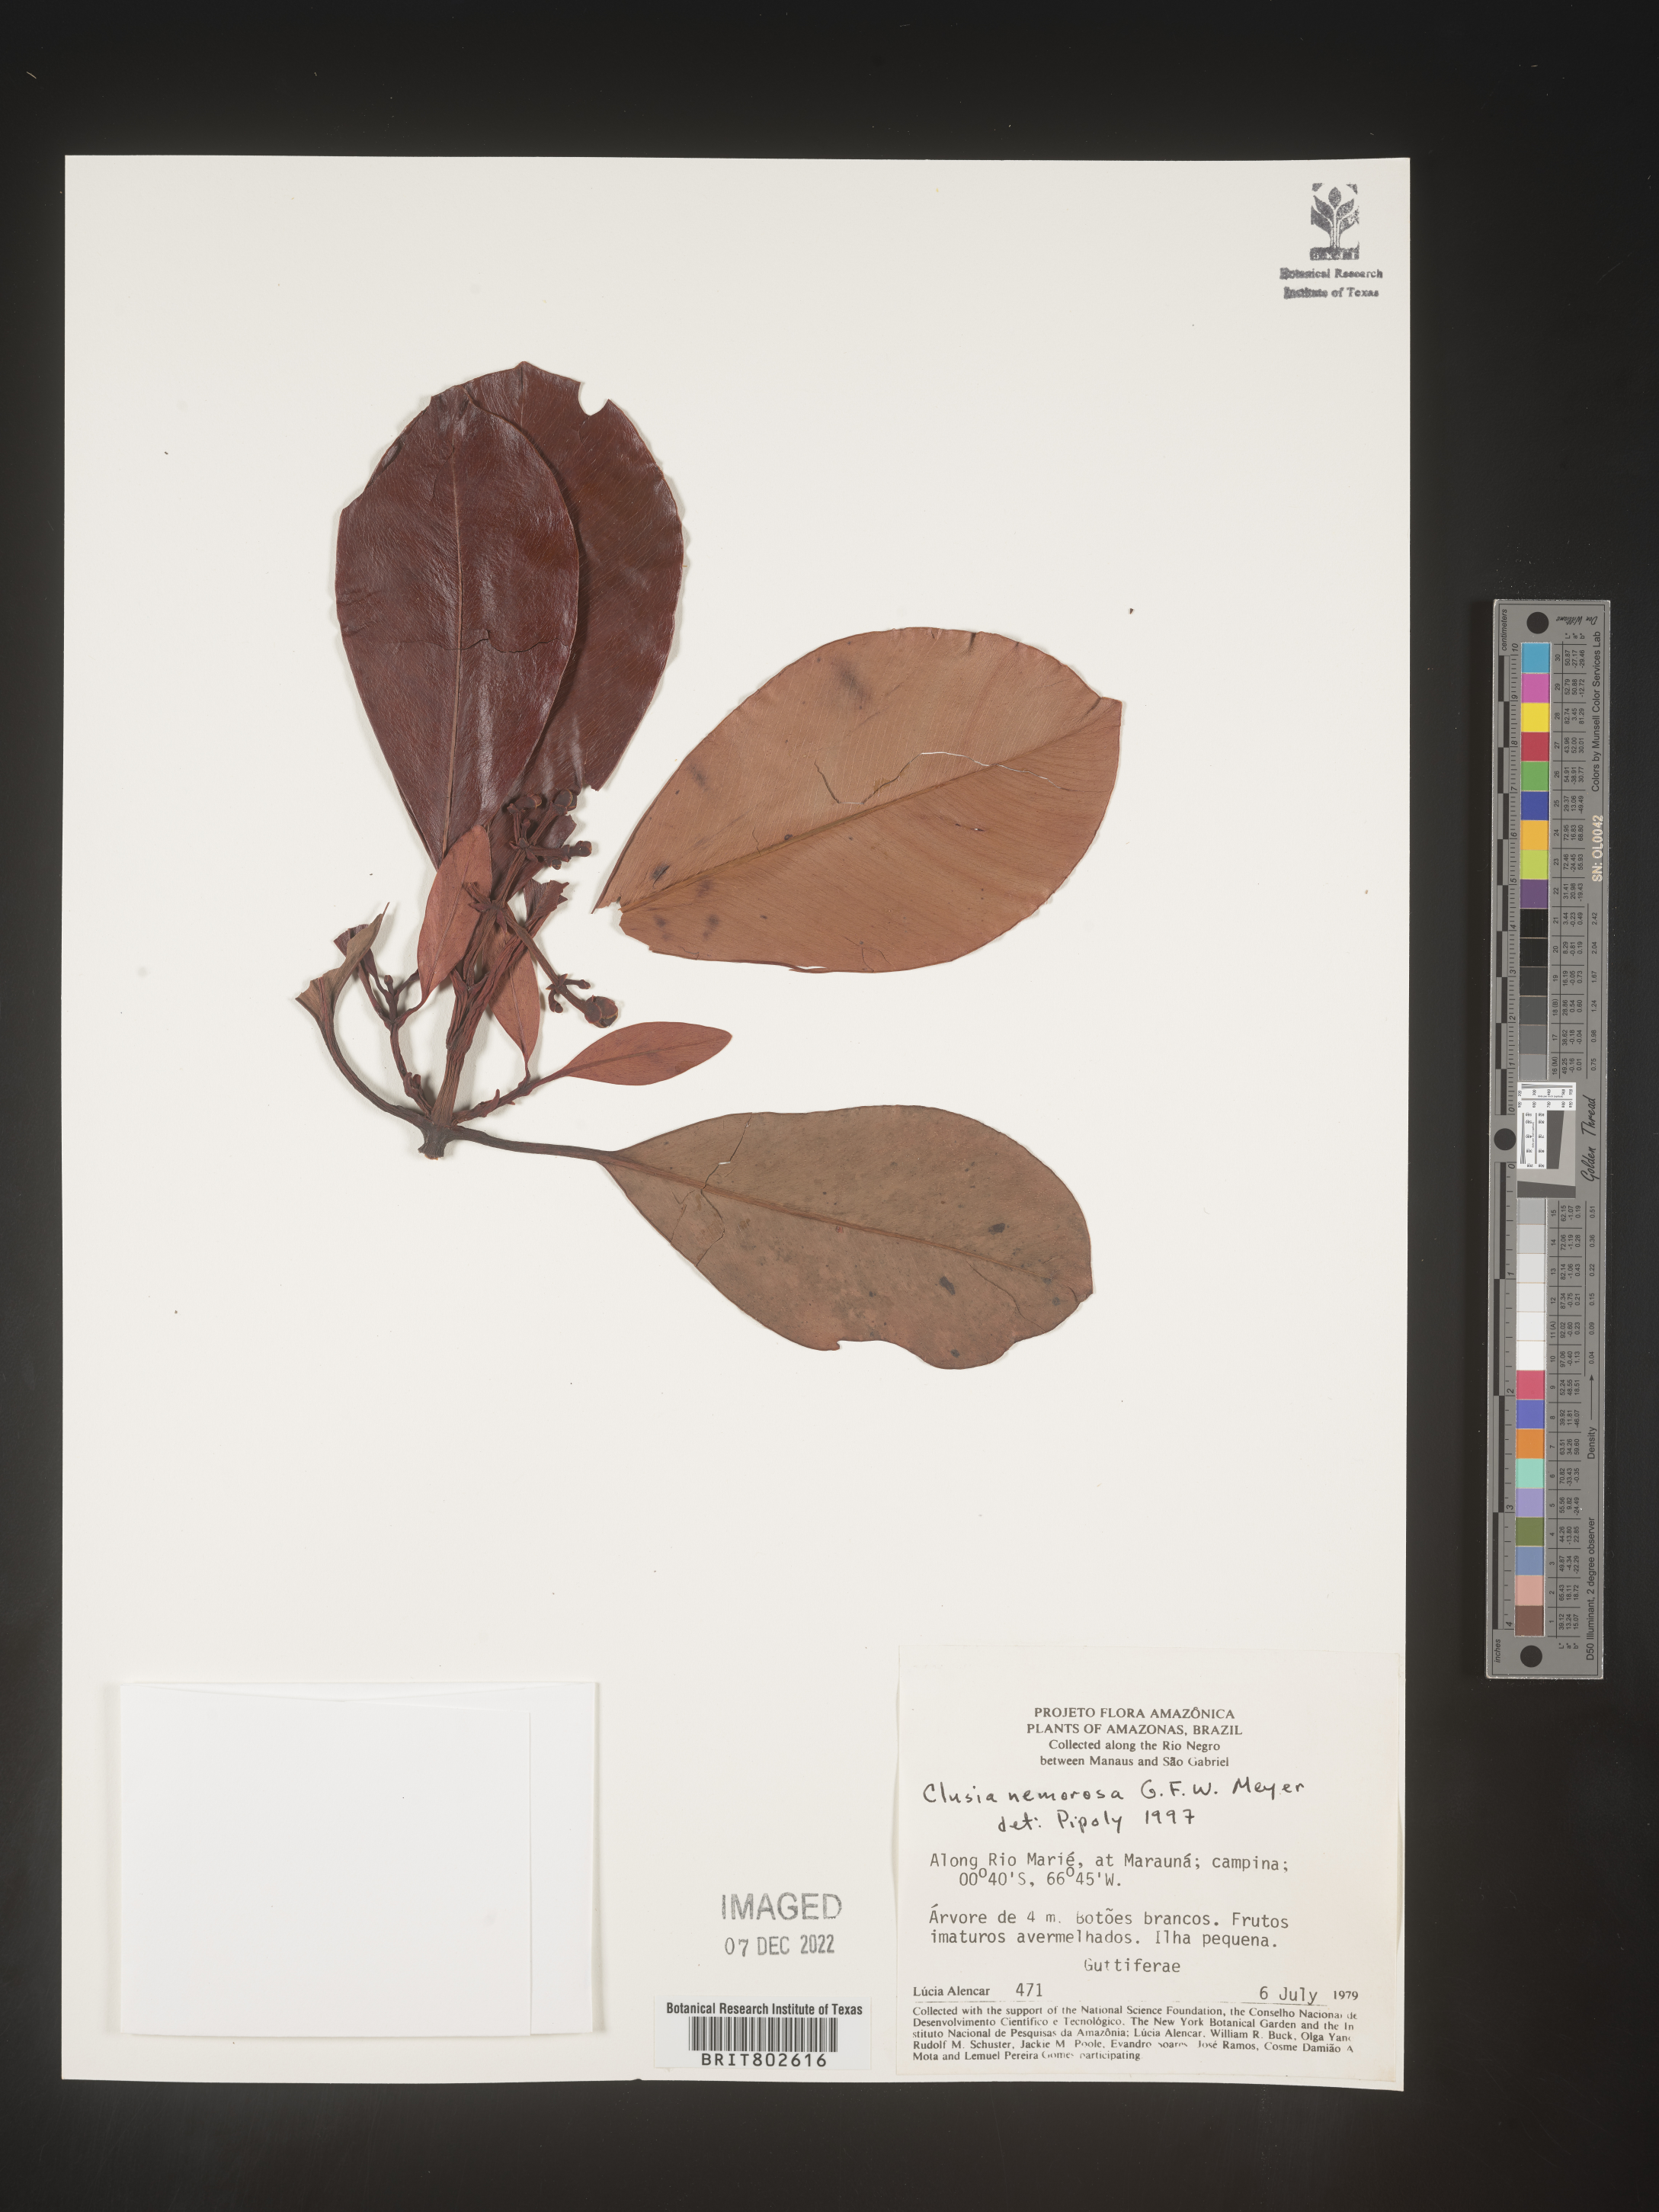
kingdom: Plantae
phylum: Tracheophyta
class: Magnoliopsida
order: Malpighiales
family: Clusiaceae
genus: Clusia
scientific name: Clusia nemorosa
